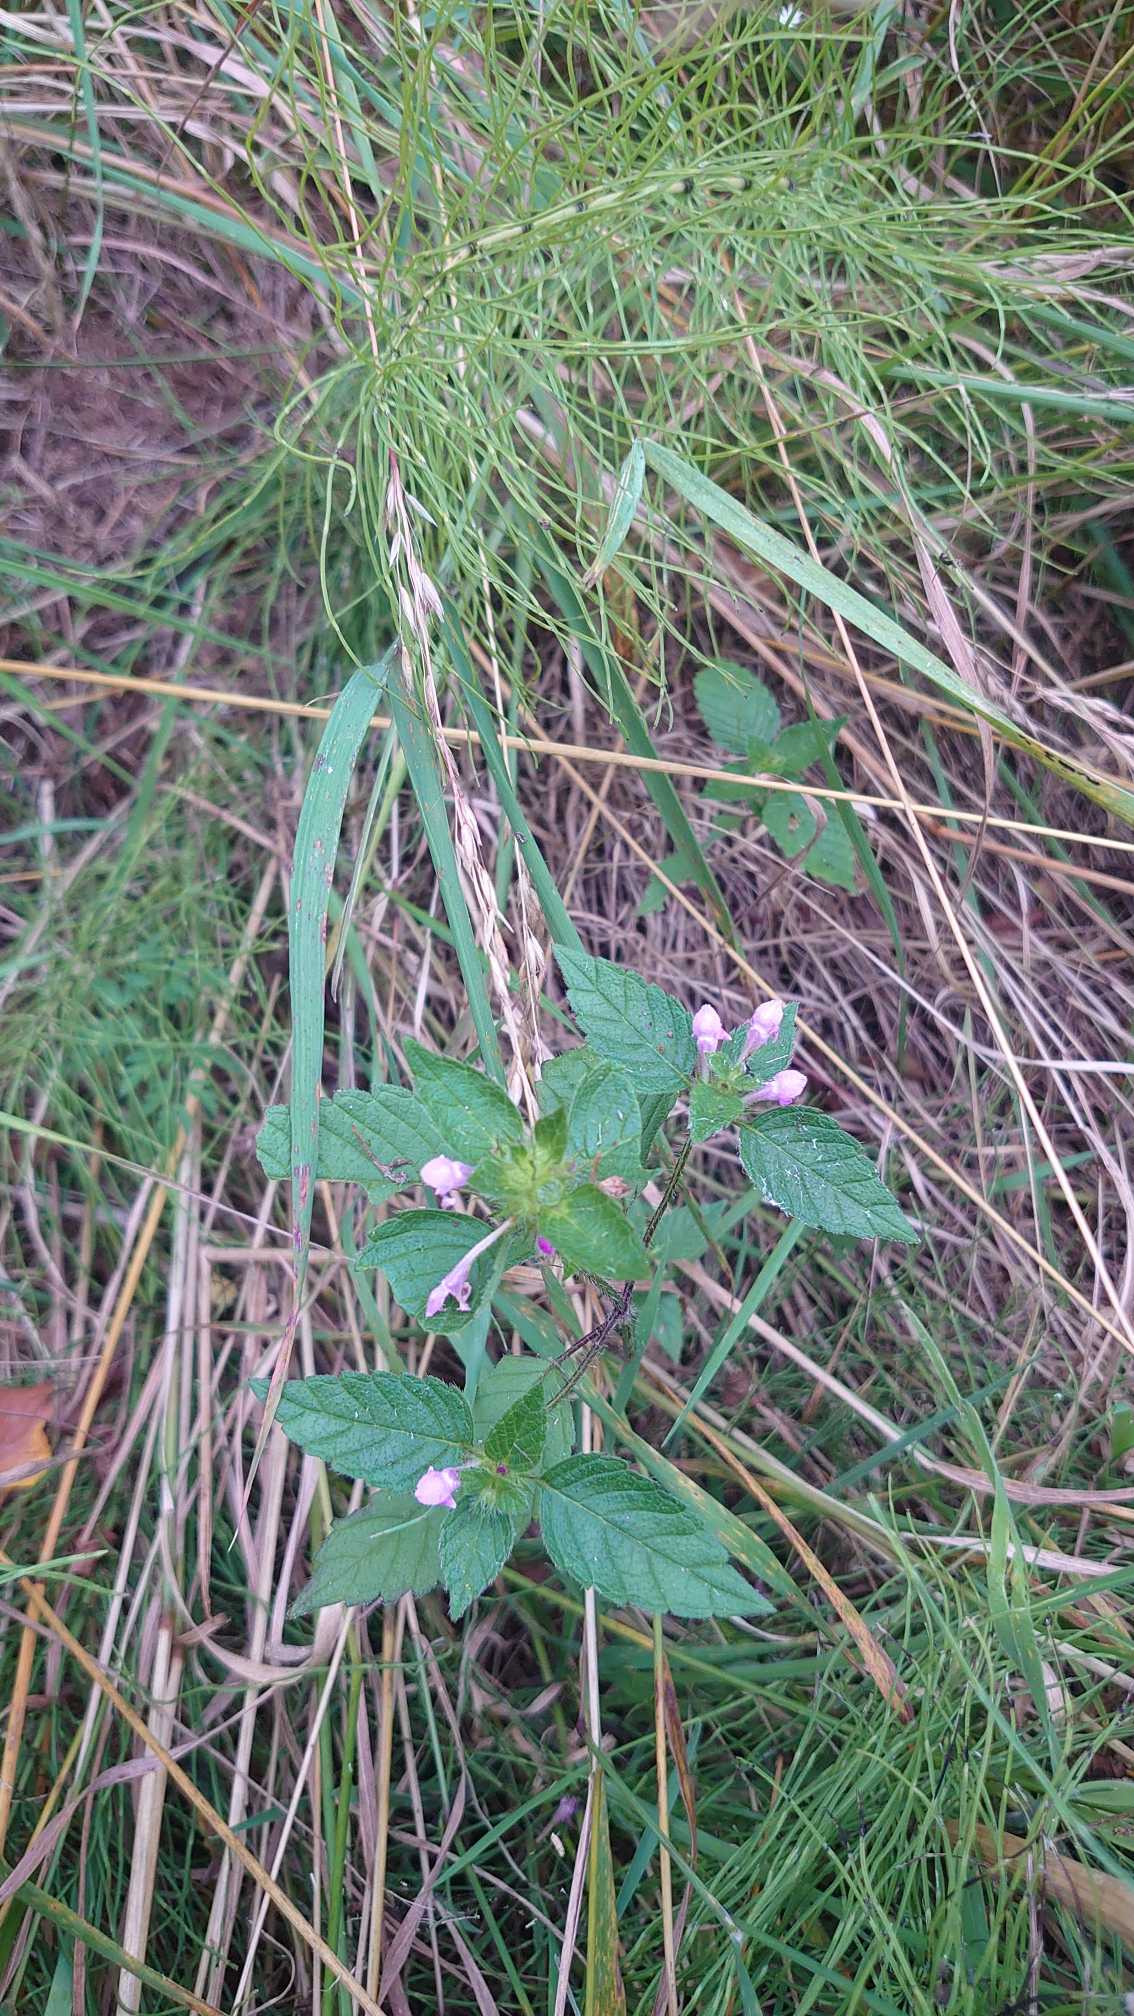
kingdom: Plantae
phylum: Tracheophyta
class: Magnoliopsida
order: Lamiales
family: Lamiaceae
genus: Galeopsis
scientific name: Galeopsis tetrahit
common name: Almindelig hanekro
